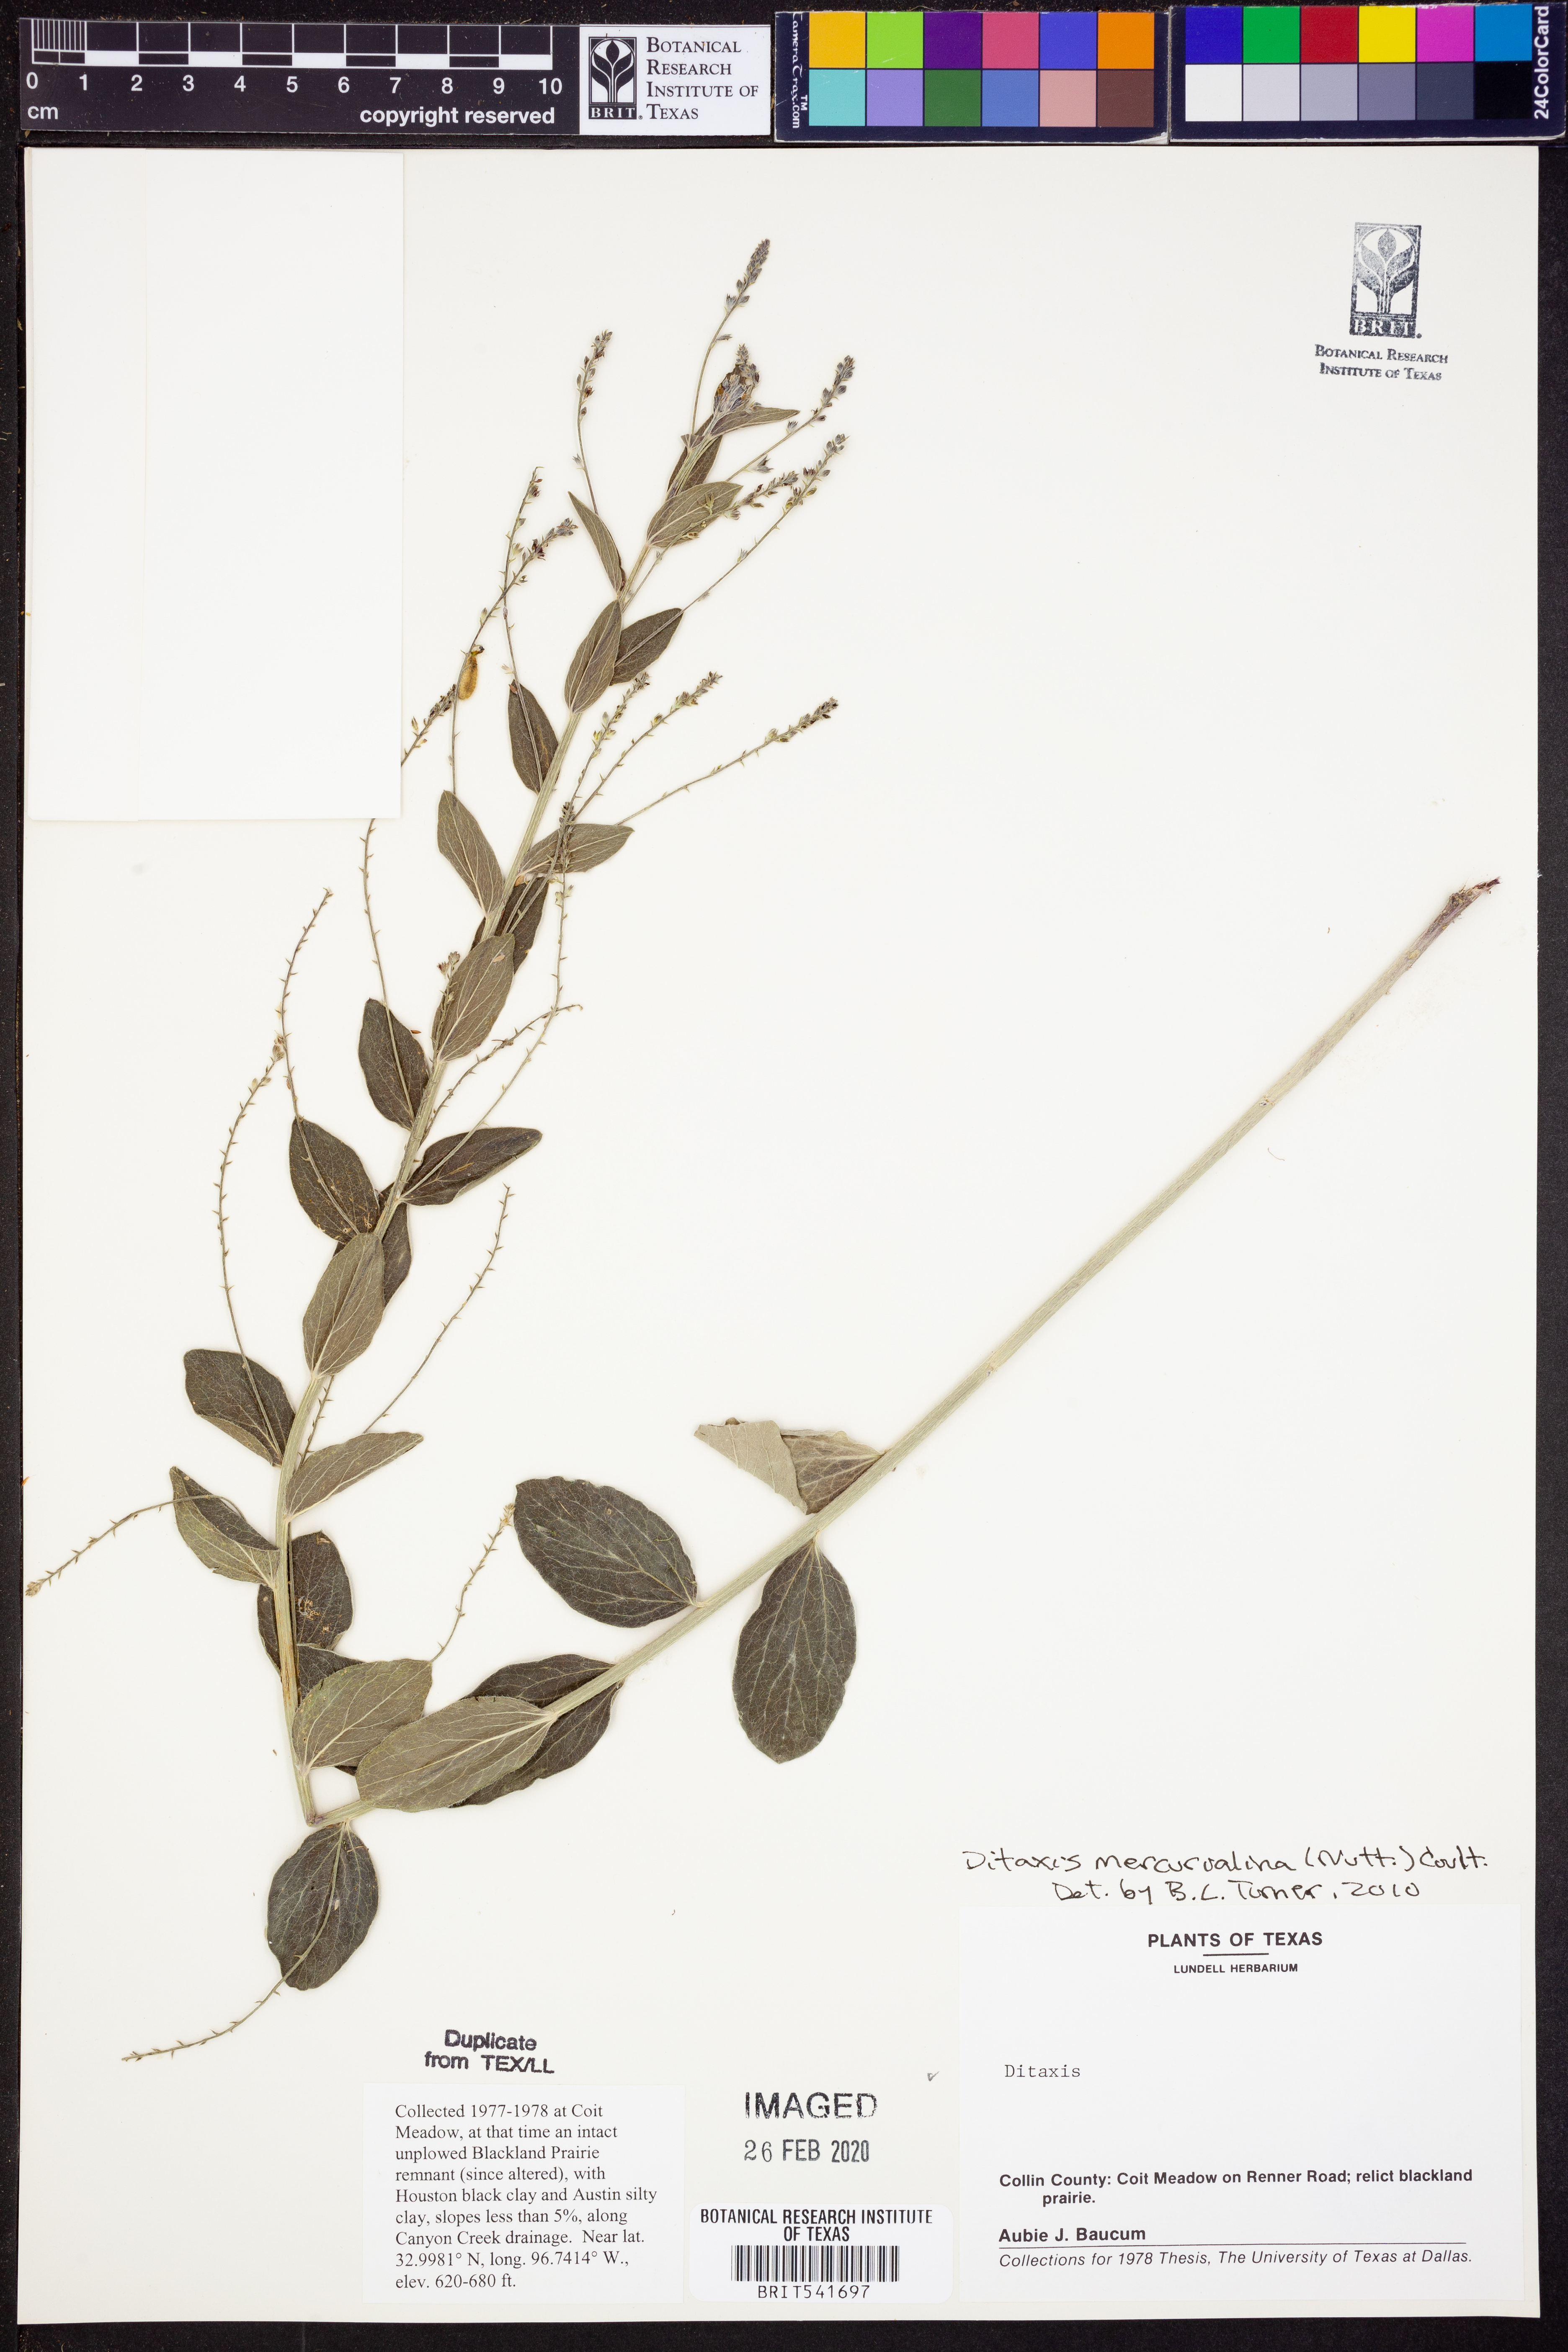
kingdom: Plantae
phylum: Tracheophyta
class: Magnoliopsida
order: Malpighiales
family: Euphorbiaceae
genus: Ditaxis
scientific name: Ditaxis mercurialina
